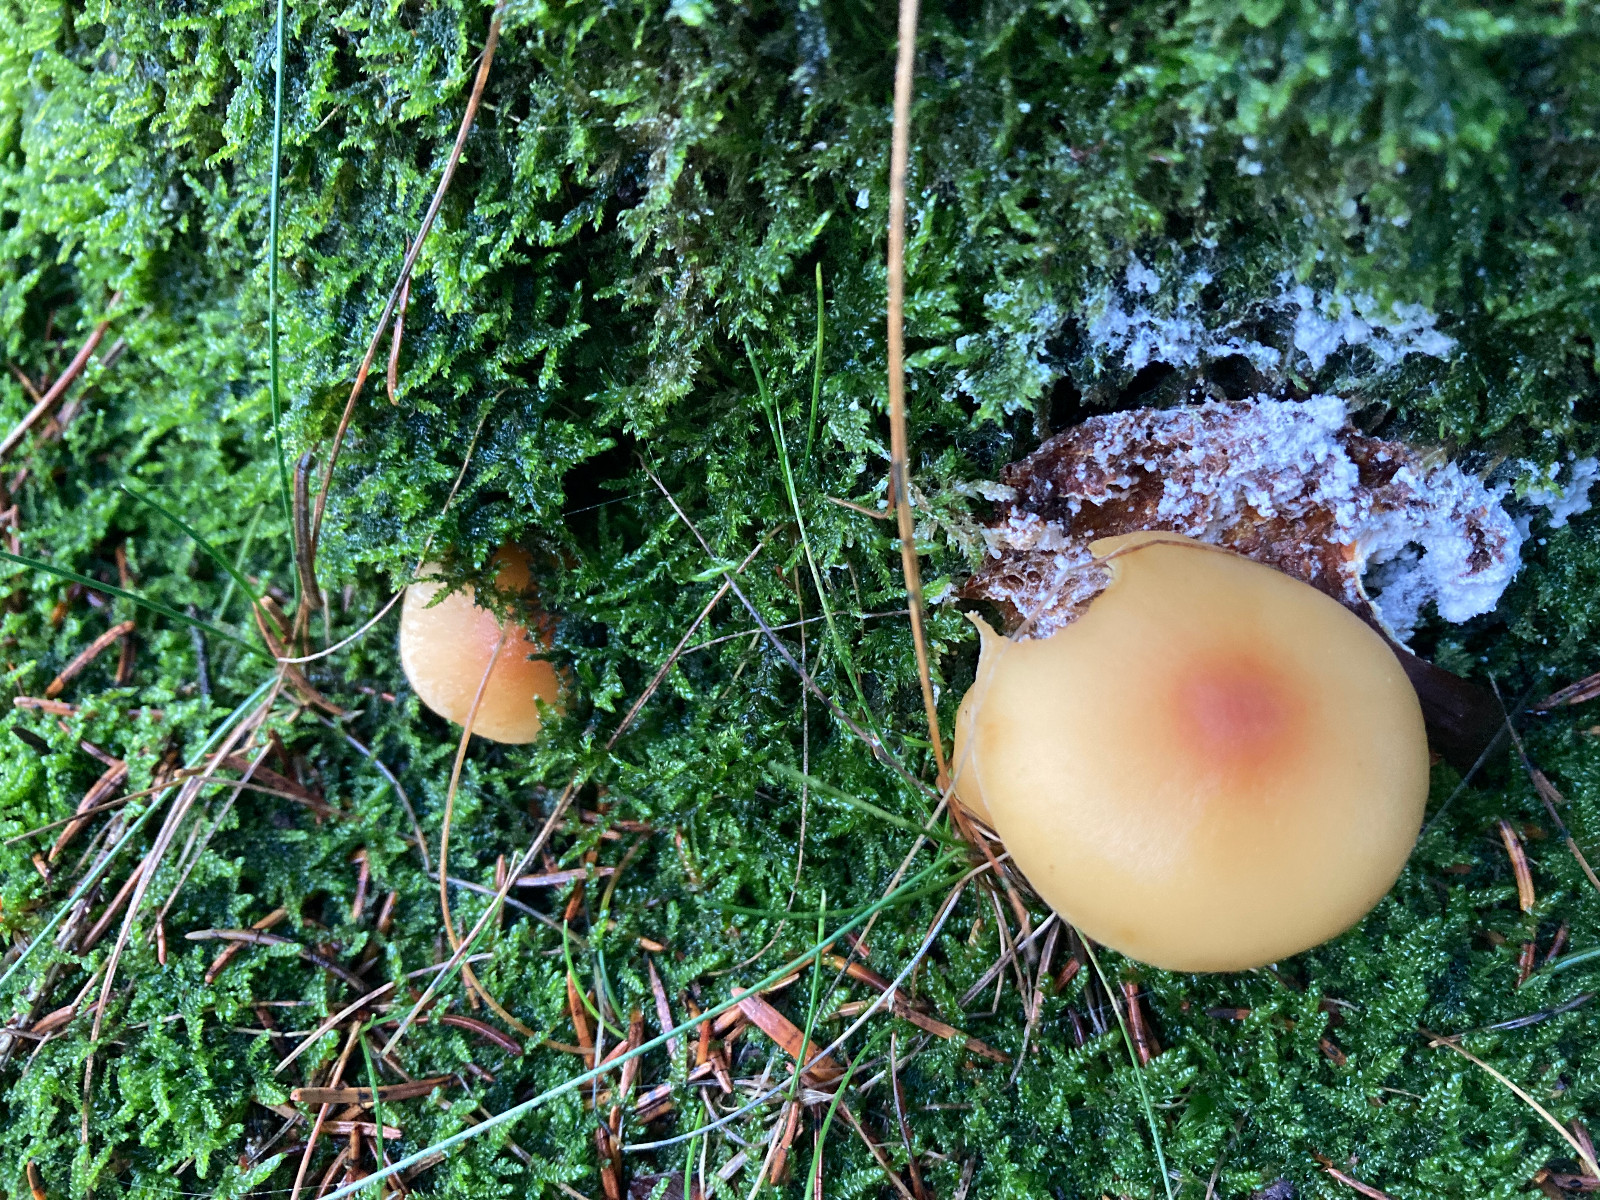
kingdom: Fungi
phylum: Basidiomycota
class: Agaricomycetes
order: Agaricales
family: Strophariaceae
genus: Hypholoma
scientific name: Hypholoma capnoides
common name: gran-svovlhat
